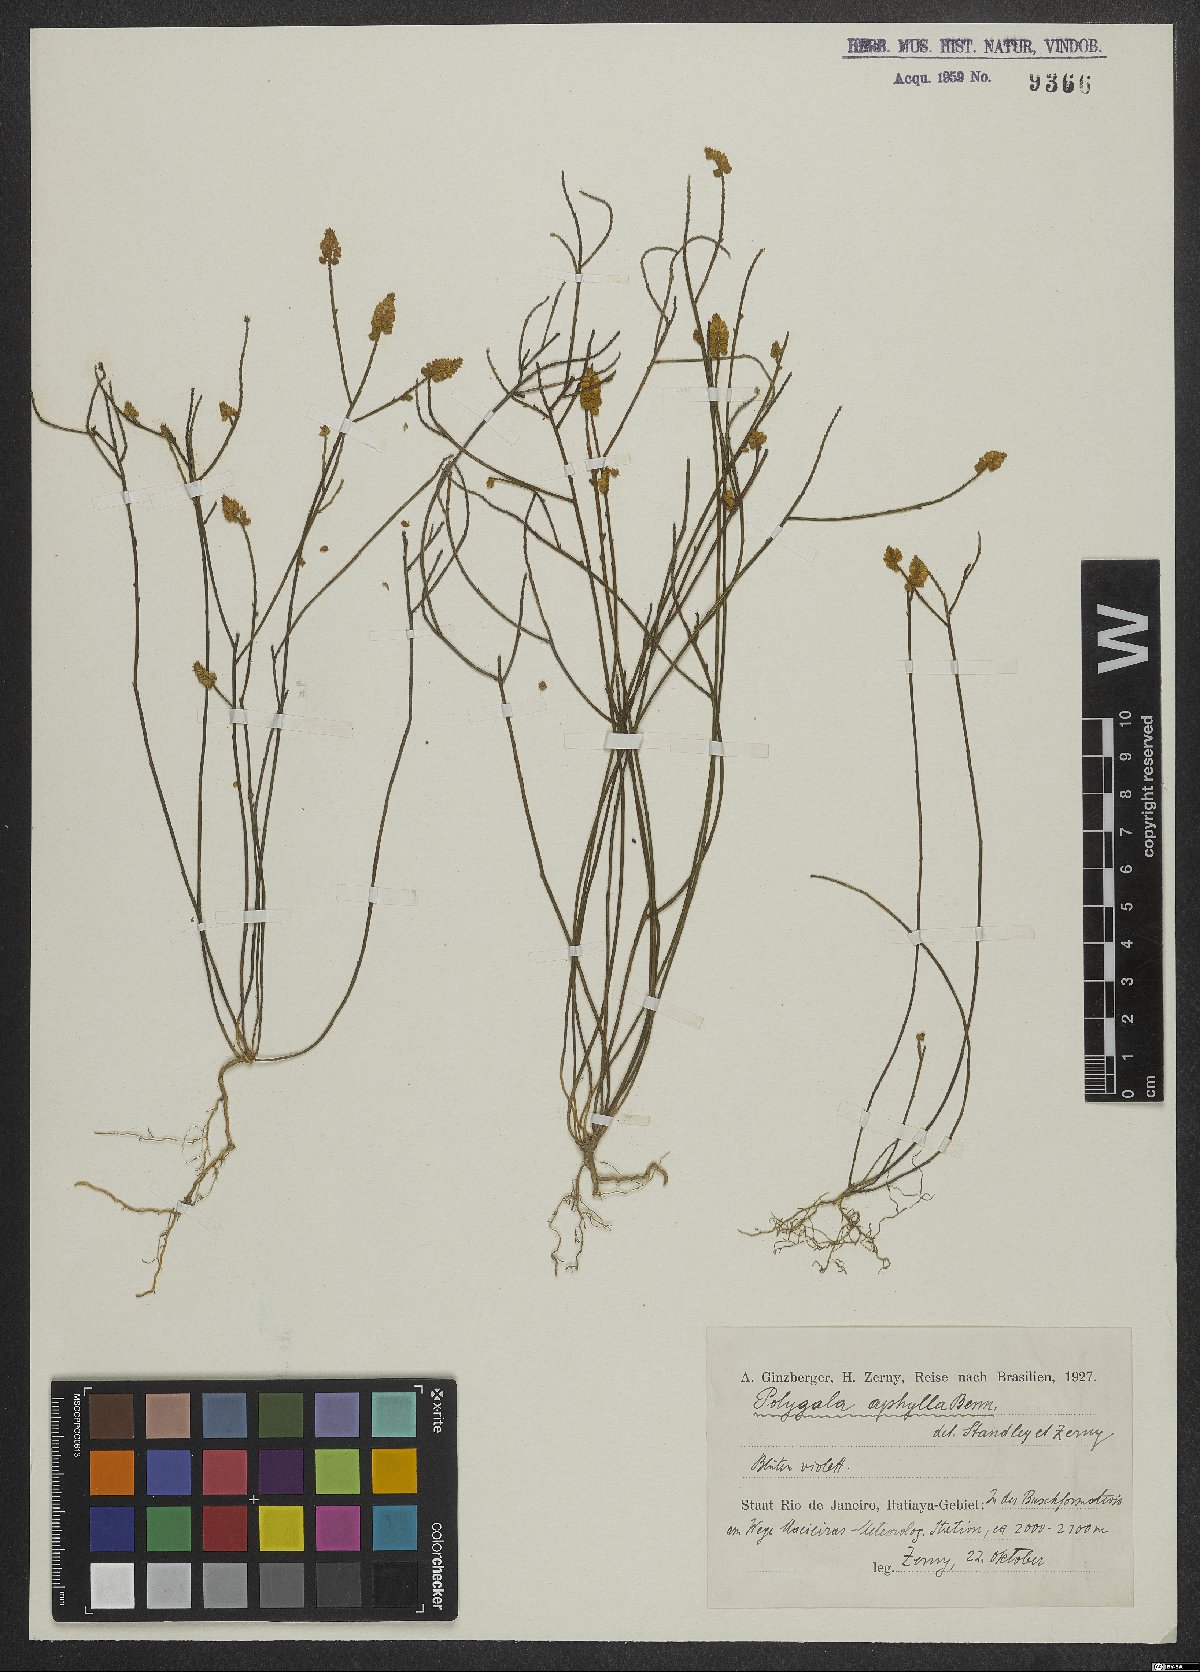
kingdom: Plantae
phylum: Tracheophyta
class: Magnoliopsida
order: Fabales
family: Polygalaceae
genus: Polygala
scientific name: Polygala aphylla
